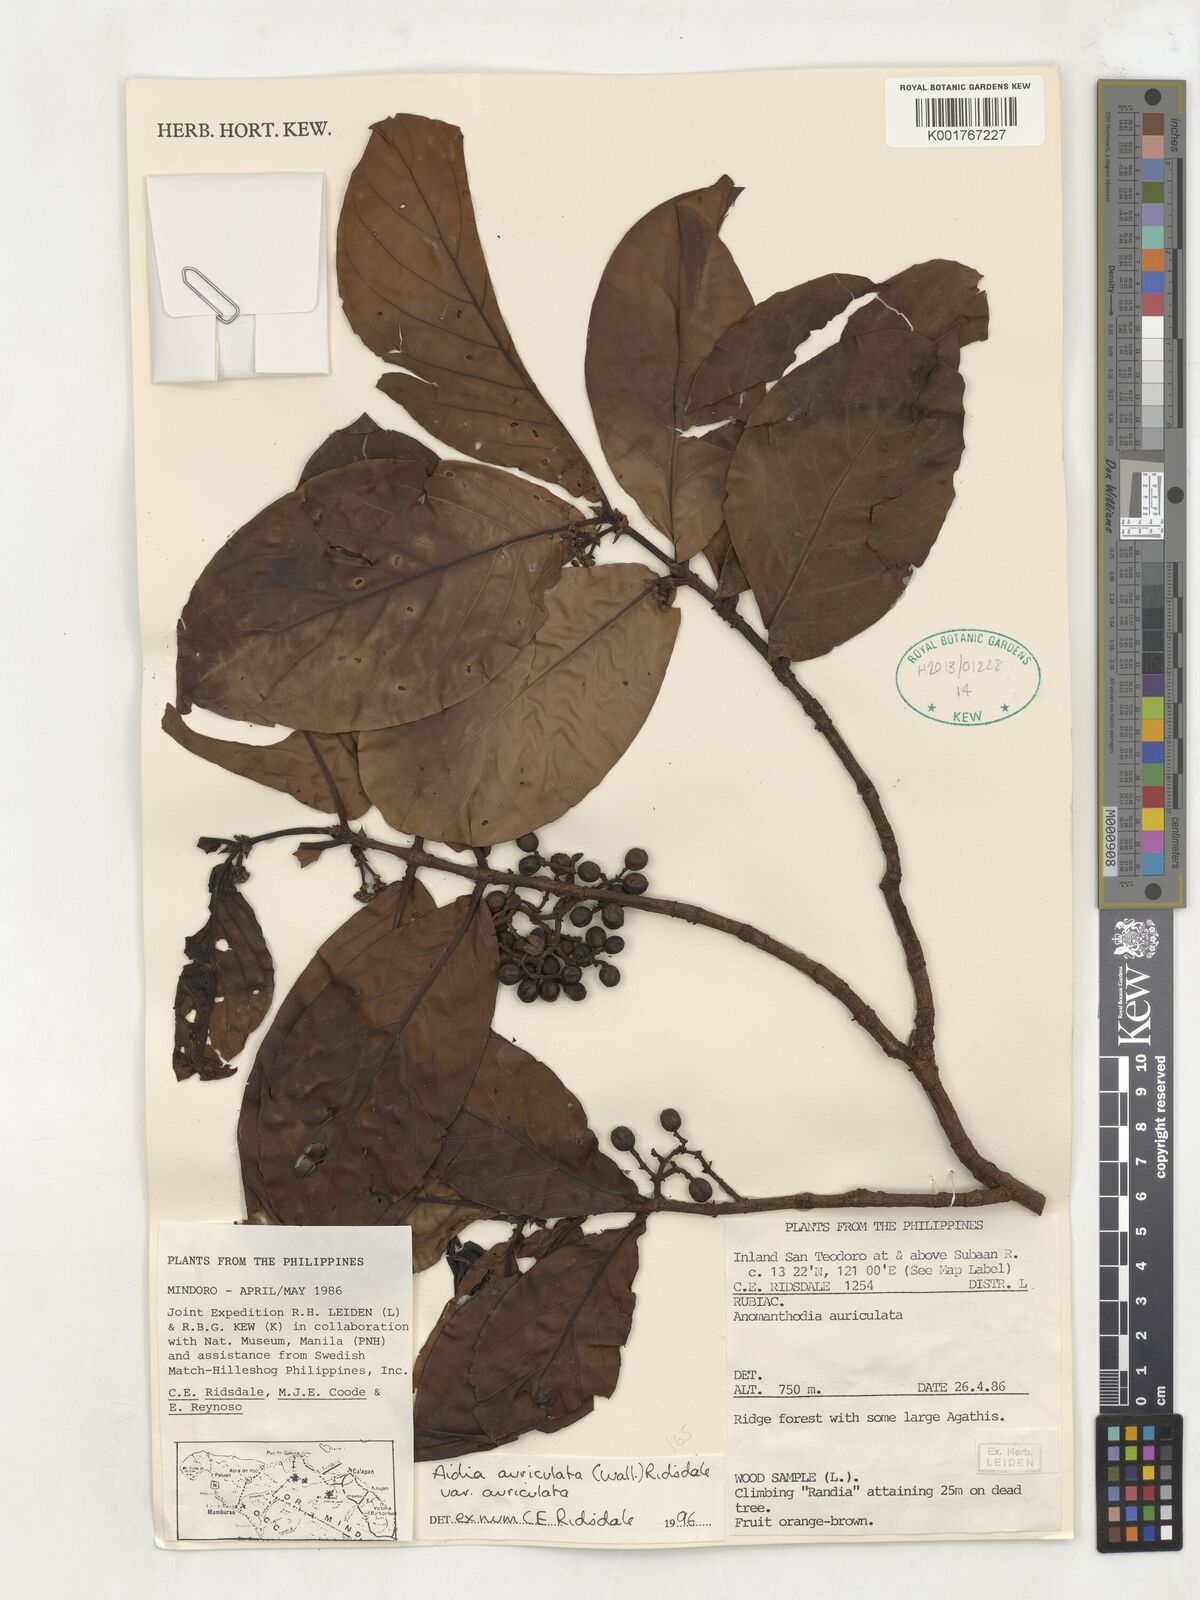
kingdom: Plantae
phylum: Tracheophyta
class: Magnoliopsida
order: Gentianales
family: Rubiaceae
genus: Aidia
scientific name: Aidia auriculata
